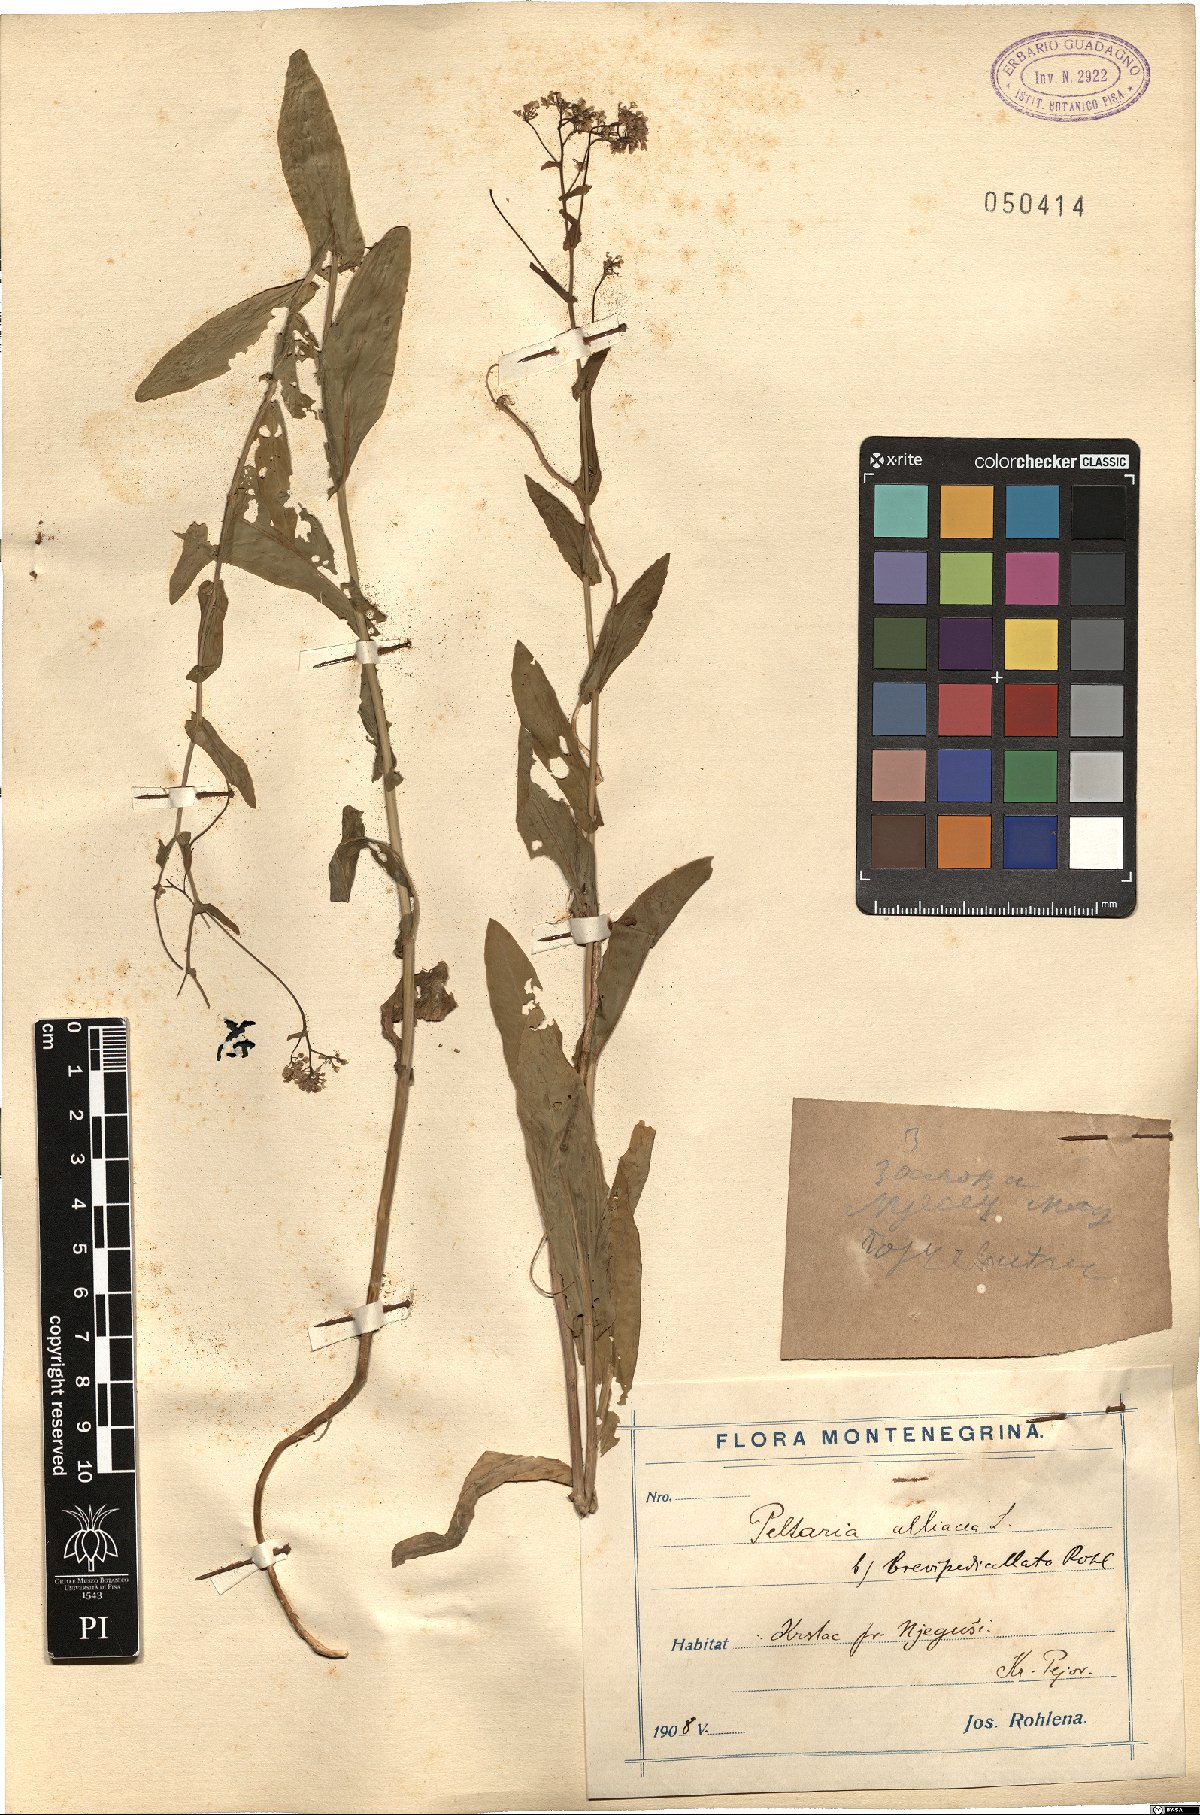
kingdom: Plantae
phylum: Tracheophyta
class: Magnoliopsida
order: Brassicales
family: Brassicaceae
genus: Peltaria
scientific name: Peltaria alliacea
